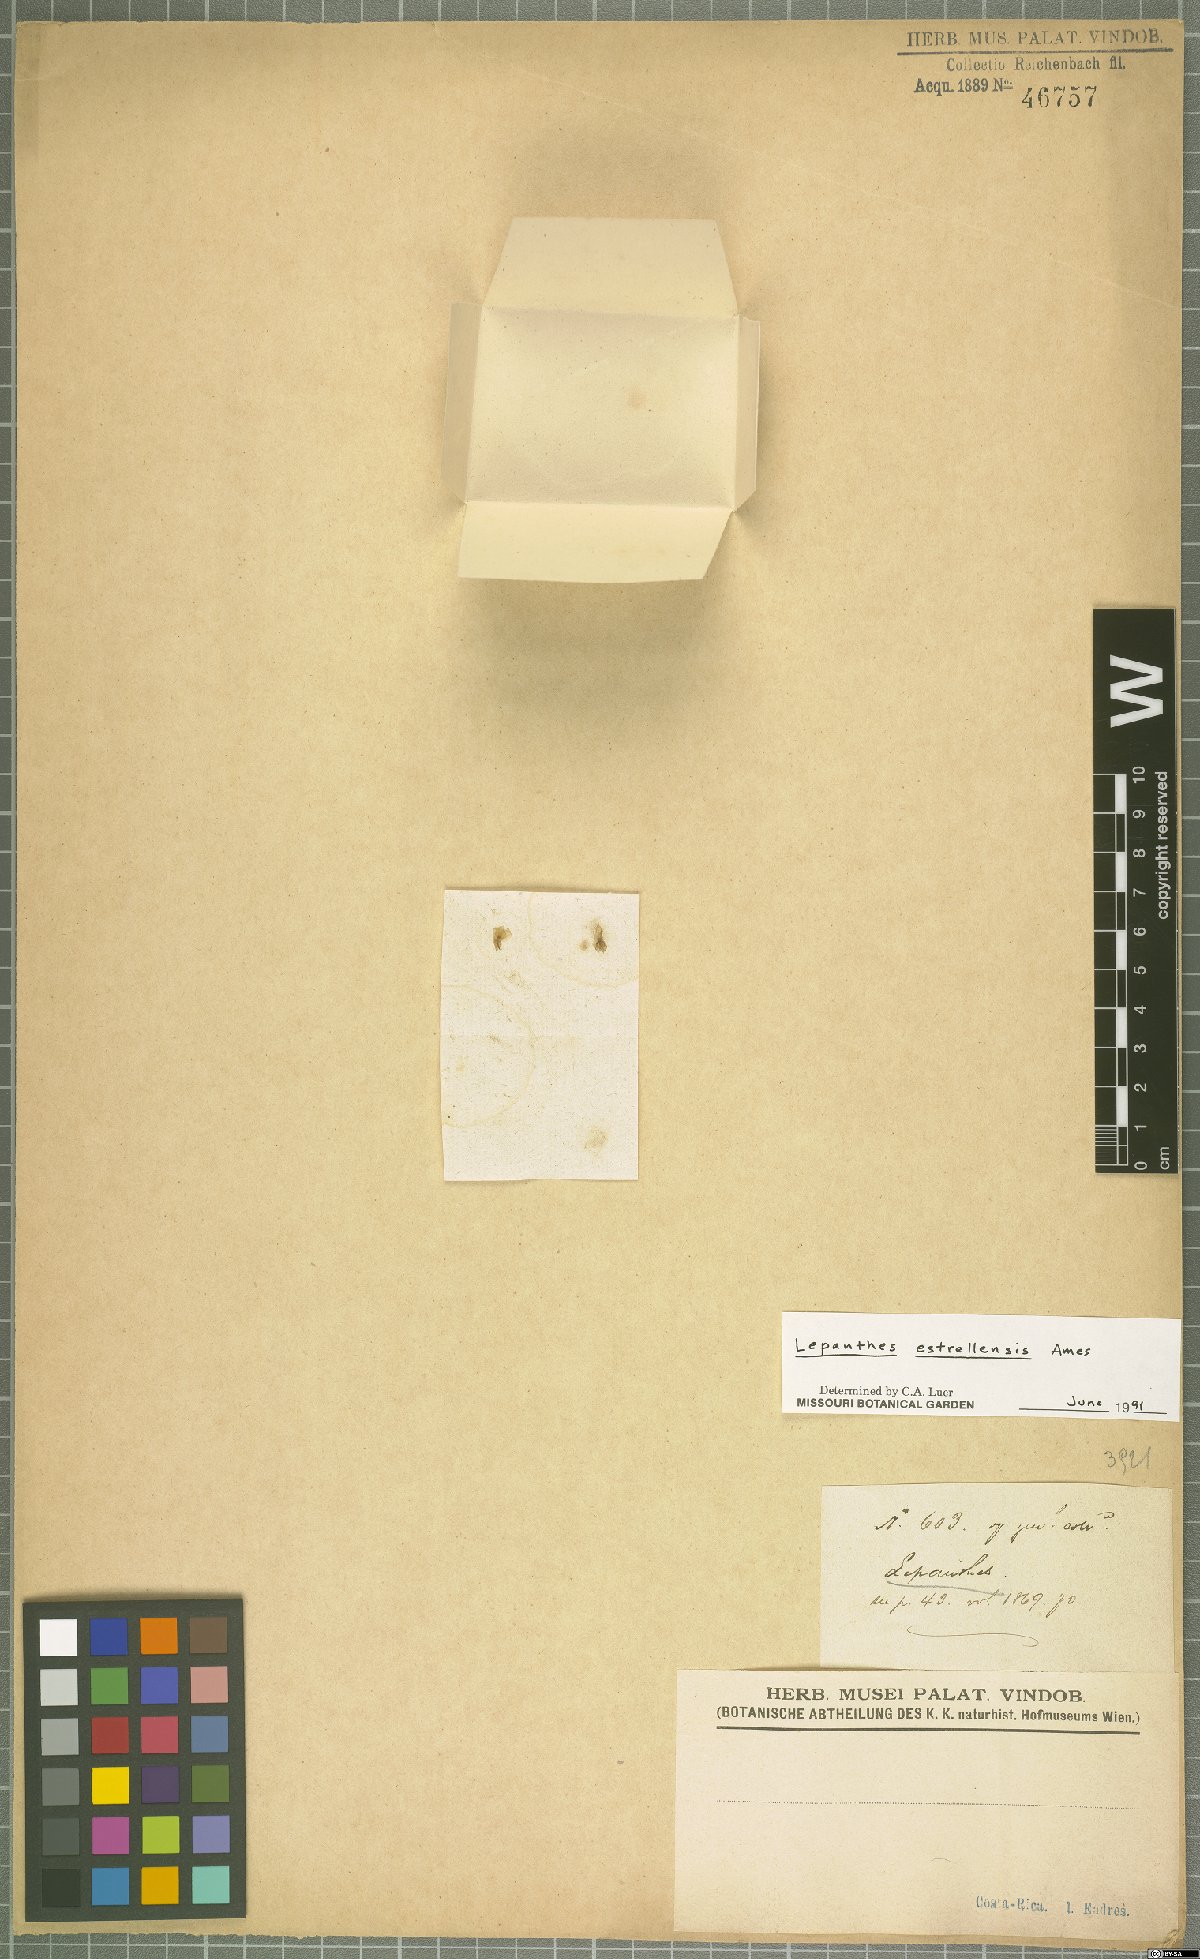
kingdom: Plantae
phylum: Tracheophyta
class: Liliopsida
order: Asparagales
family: Orchidaceae
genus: Lepanthes
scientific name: Lepanthes estrellensis
